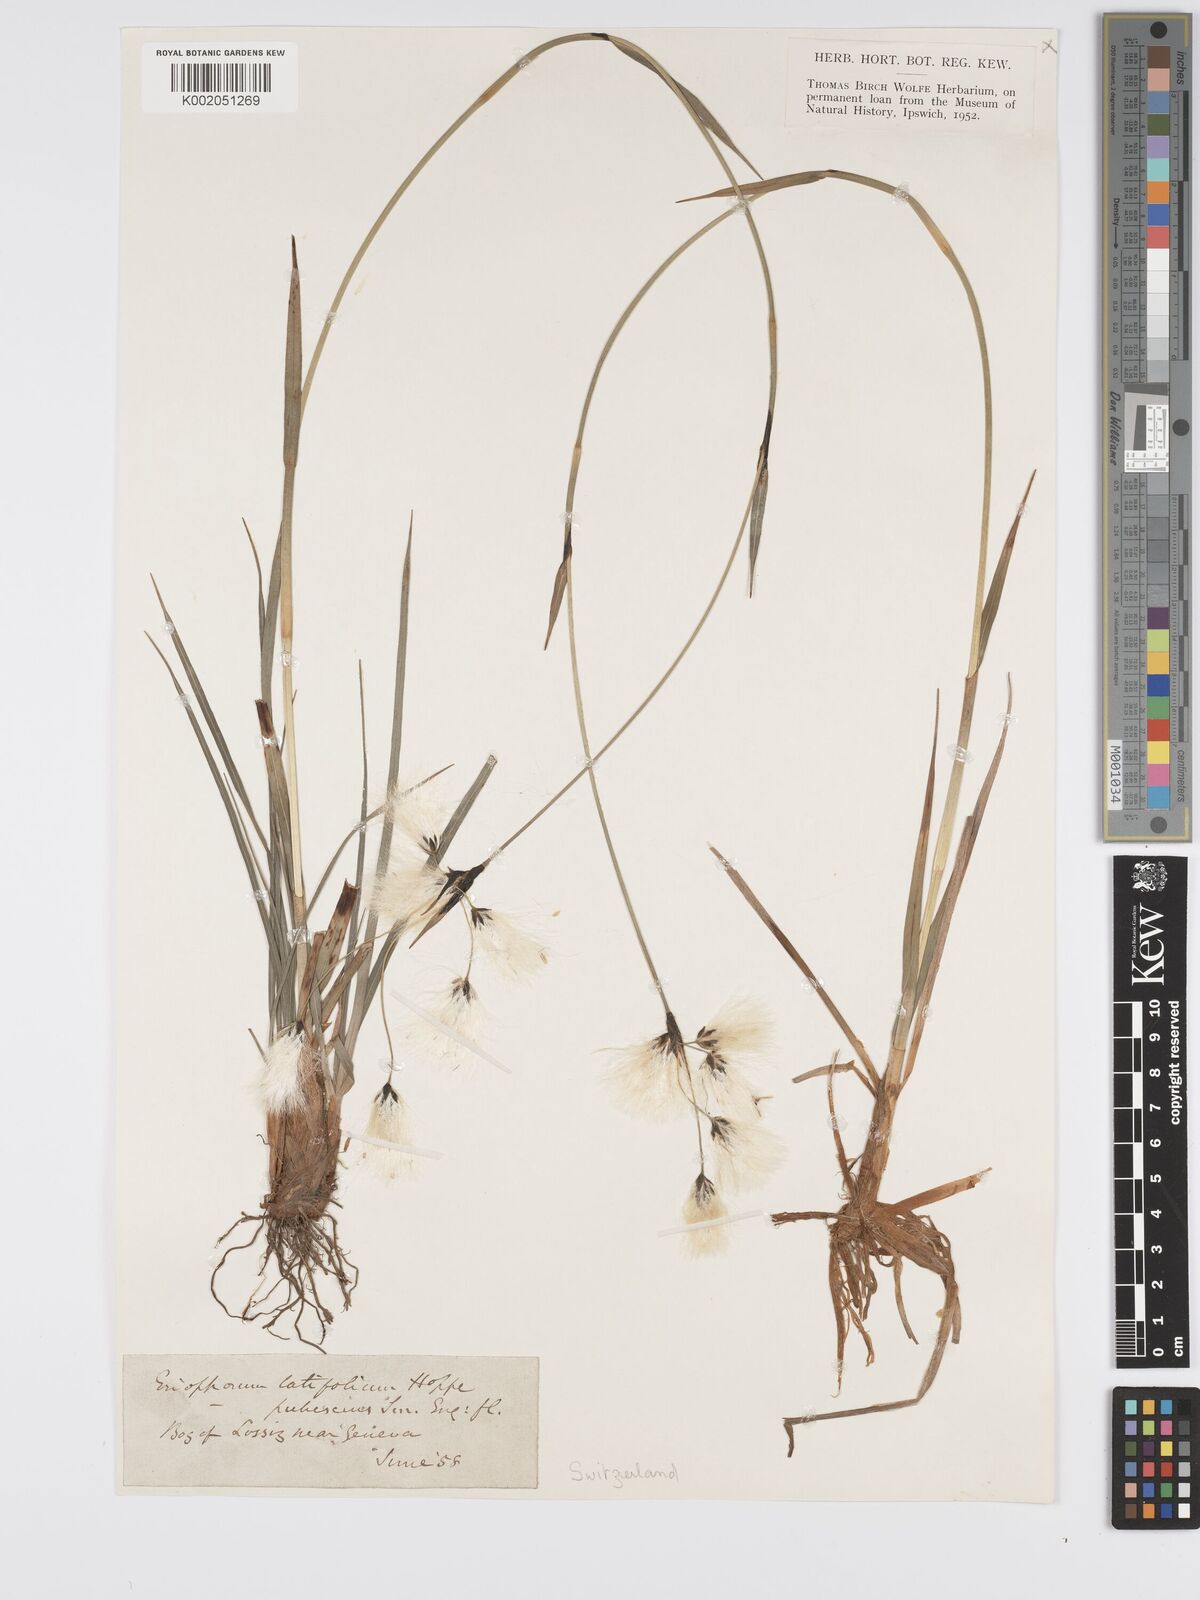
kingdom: Plantae
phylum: Tracheophyta
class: Liliopsida
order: Poales
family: Cyperaceae
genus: Eriophorum
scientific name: Eriophorum latifolium
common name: Broad-leaved cottongrass
